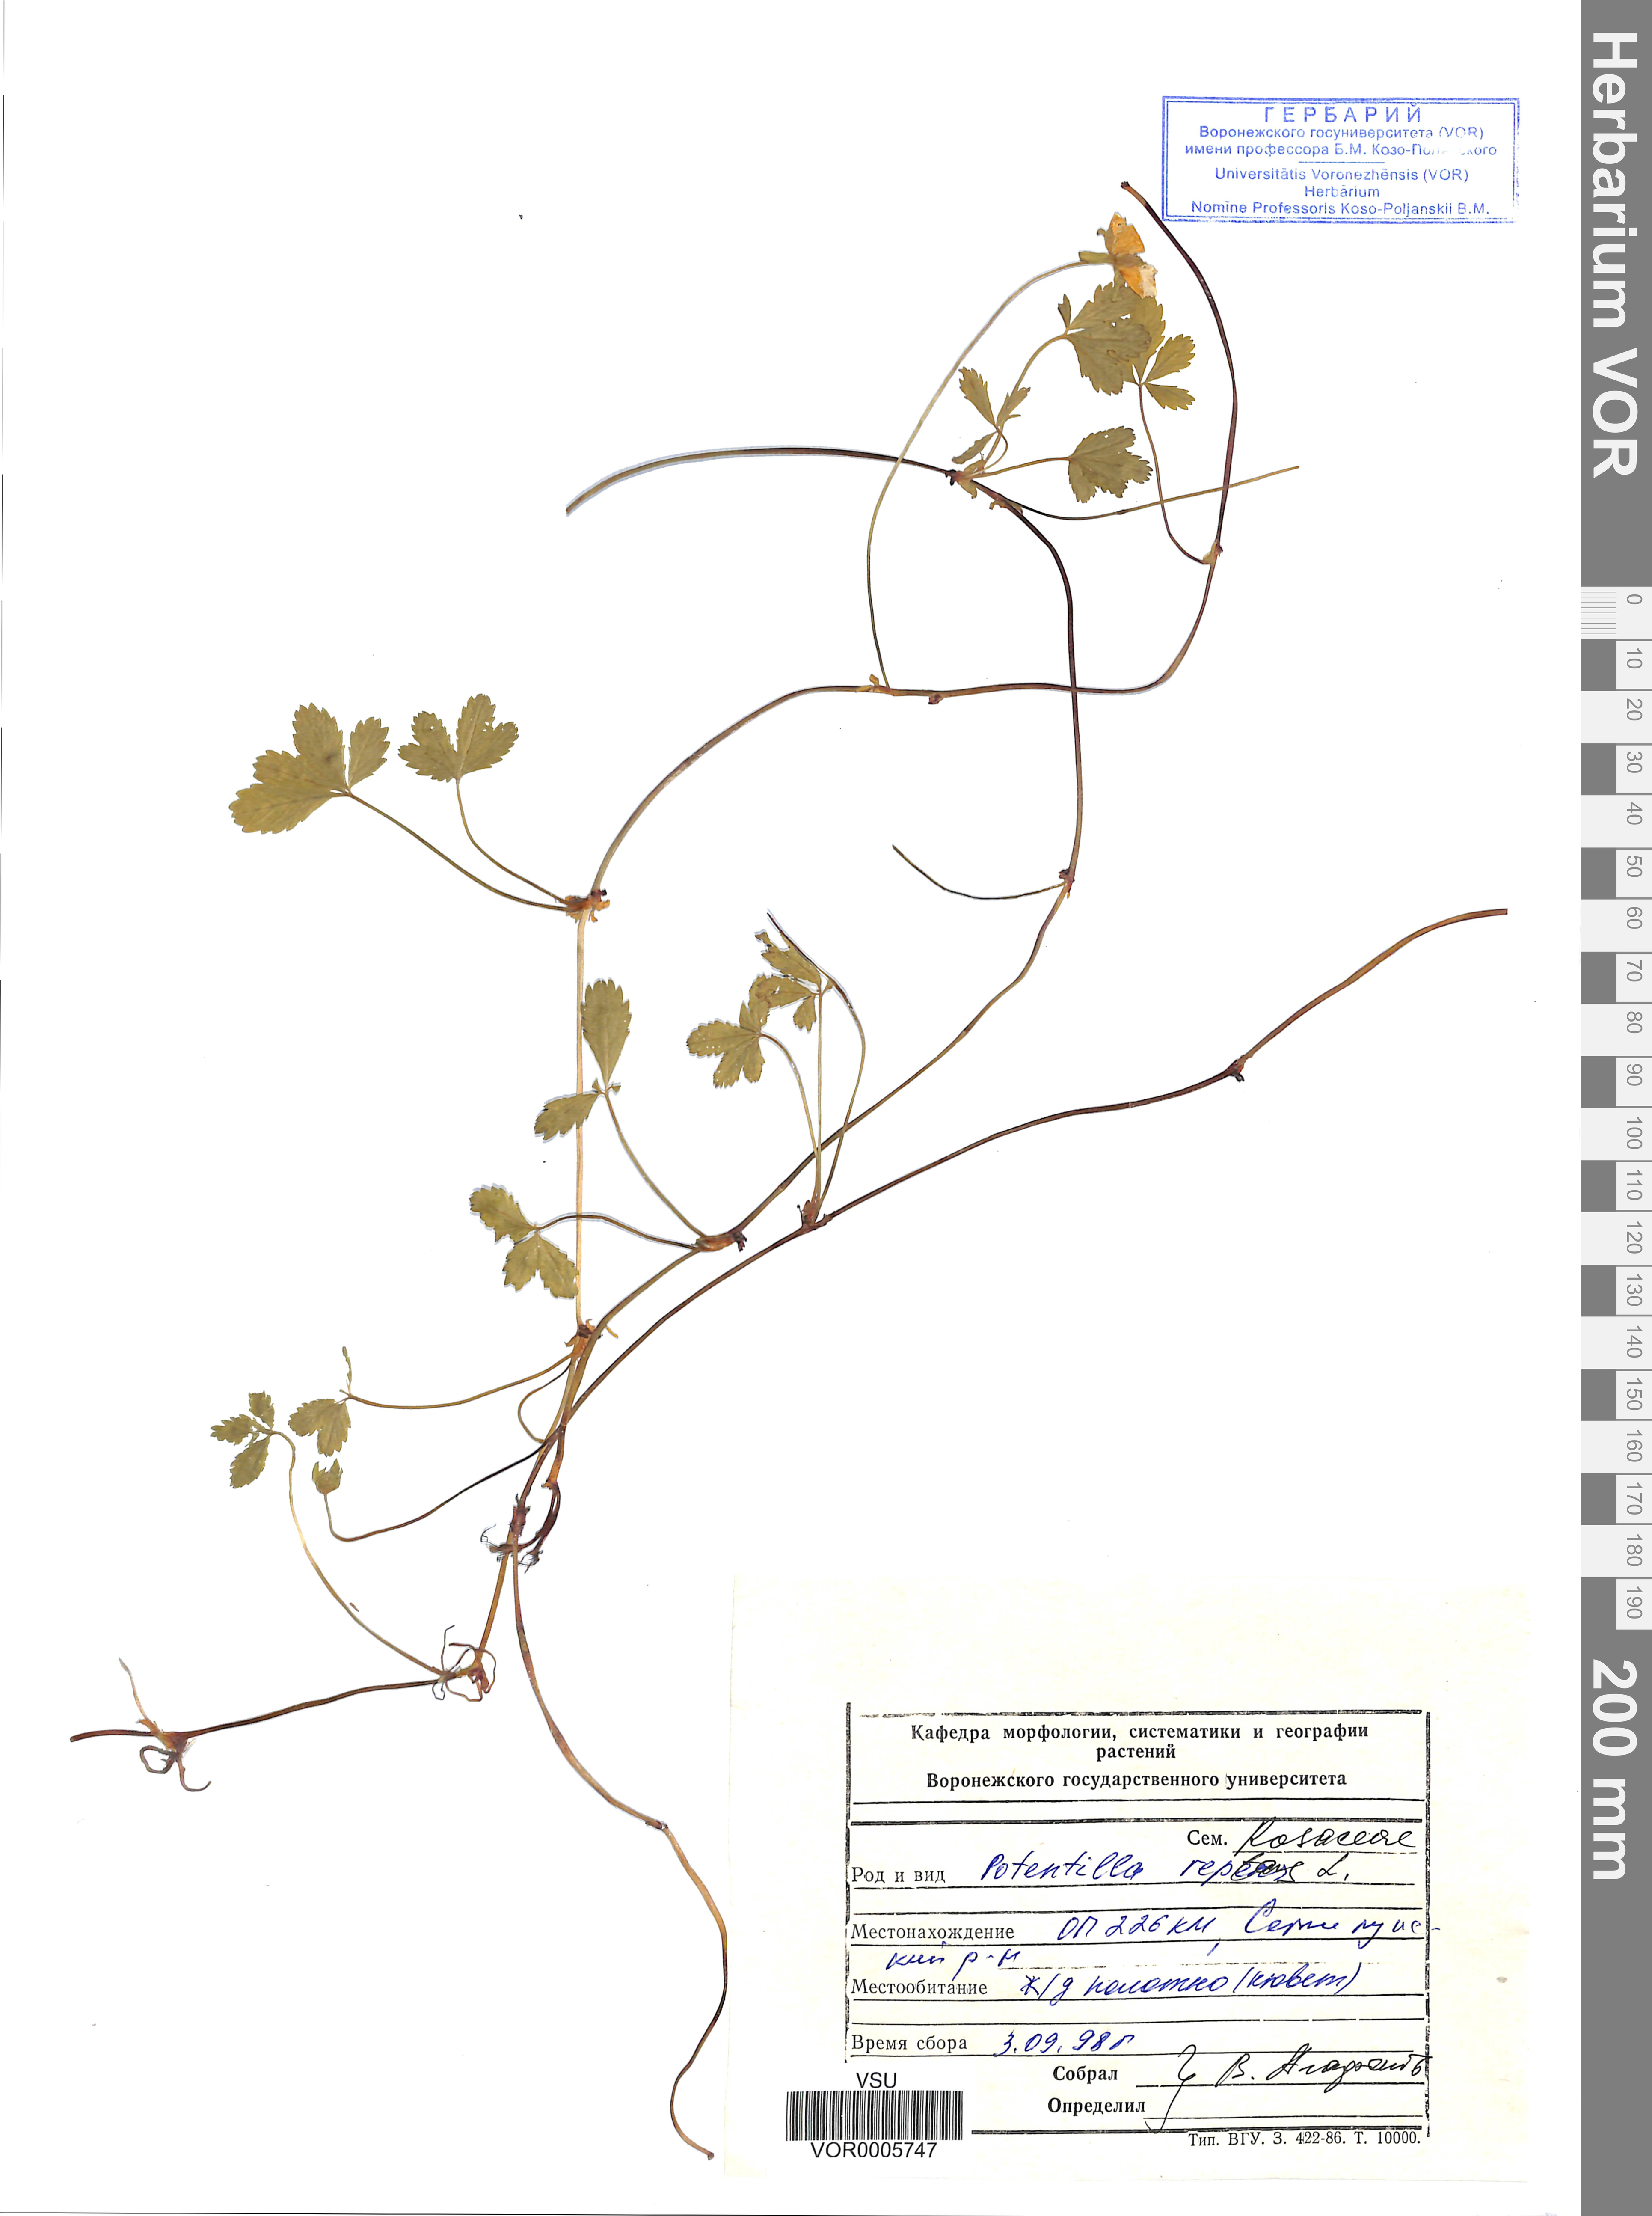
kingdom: Plantae
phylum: Tracheophyta
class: Magnoliopsida
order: Rosales
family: Rosaceae
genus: Potentilla
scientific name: Potentilla reptans
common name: Creeping cinquefoil
